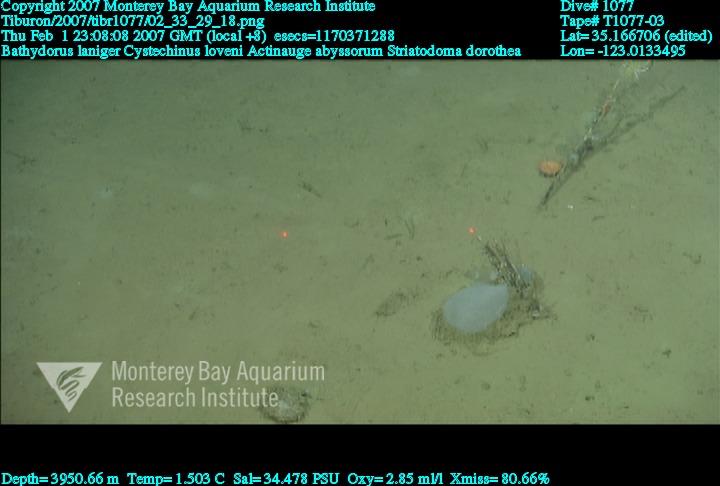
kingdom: Animalia
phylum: Porifera
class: Hexactinellida
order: Lyssacinosida
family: Rossellidae
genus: Bathydorus
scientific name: Bathydorus laniger
